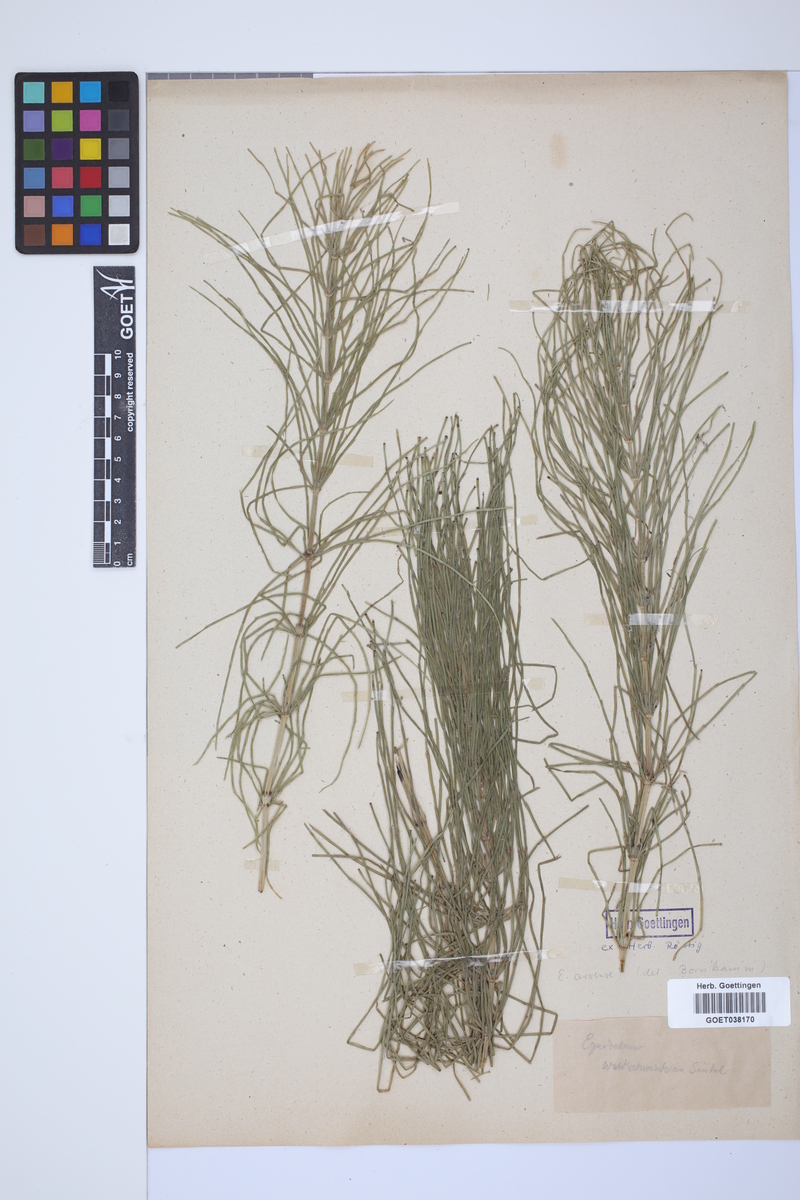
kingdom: Plantae
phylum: Tracheophyta
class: Polypodiopsida
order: Equisetales
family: Equisetaceae
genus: Equisetum
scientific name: Equisetum arvense
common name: Field horsetail
